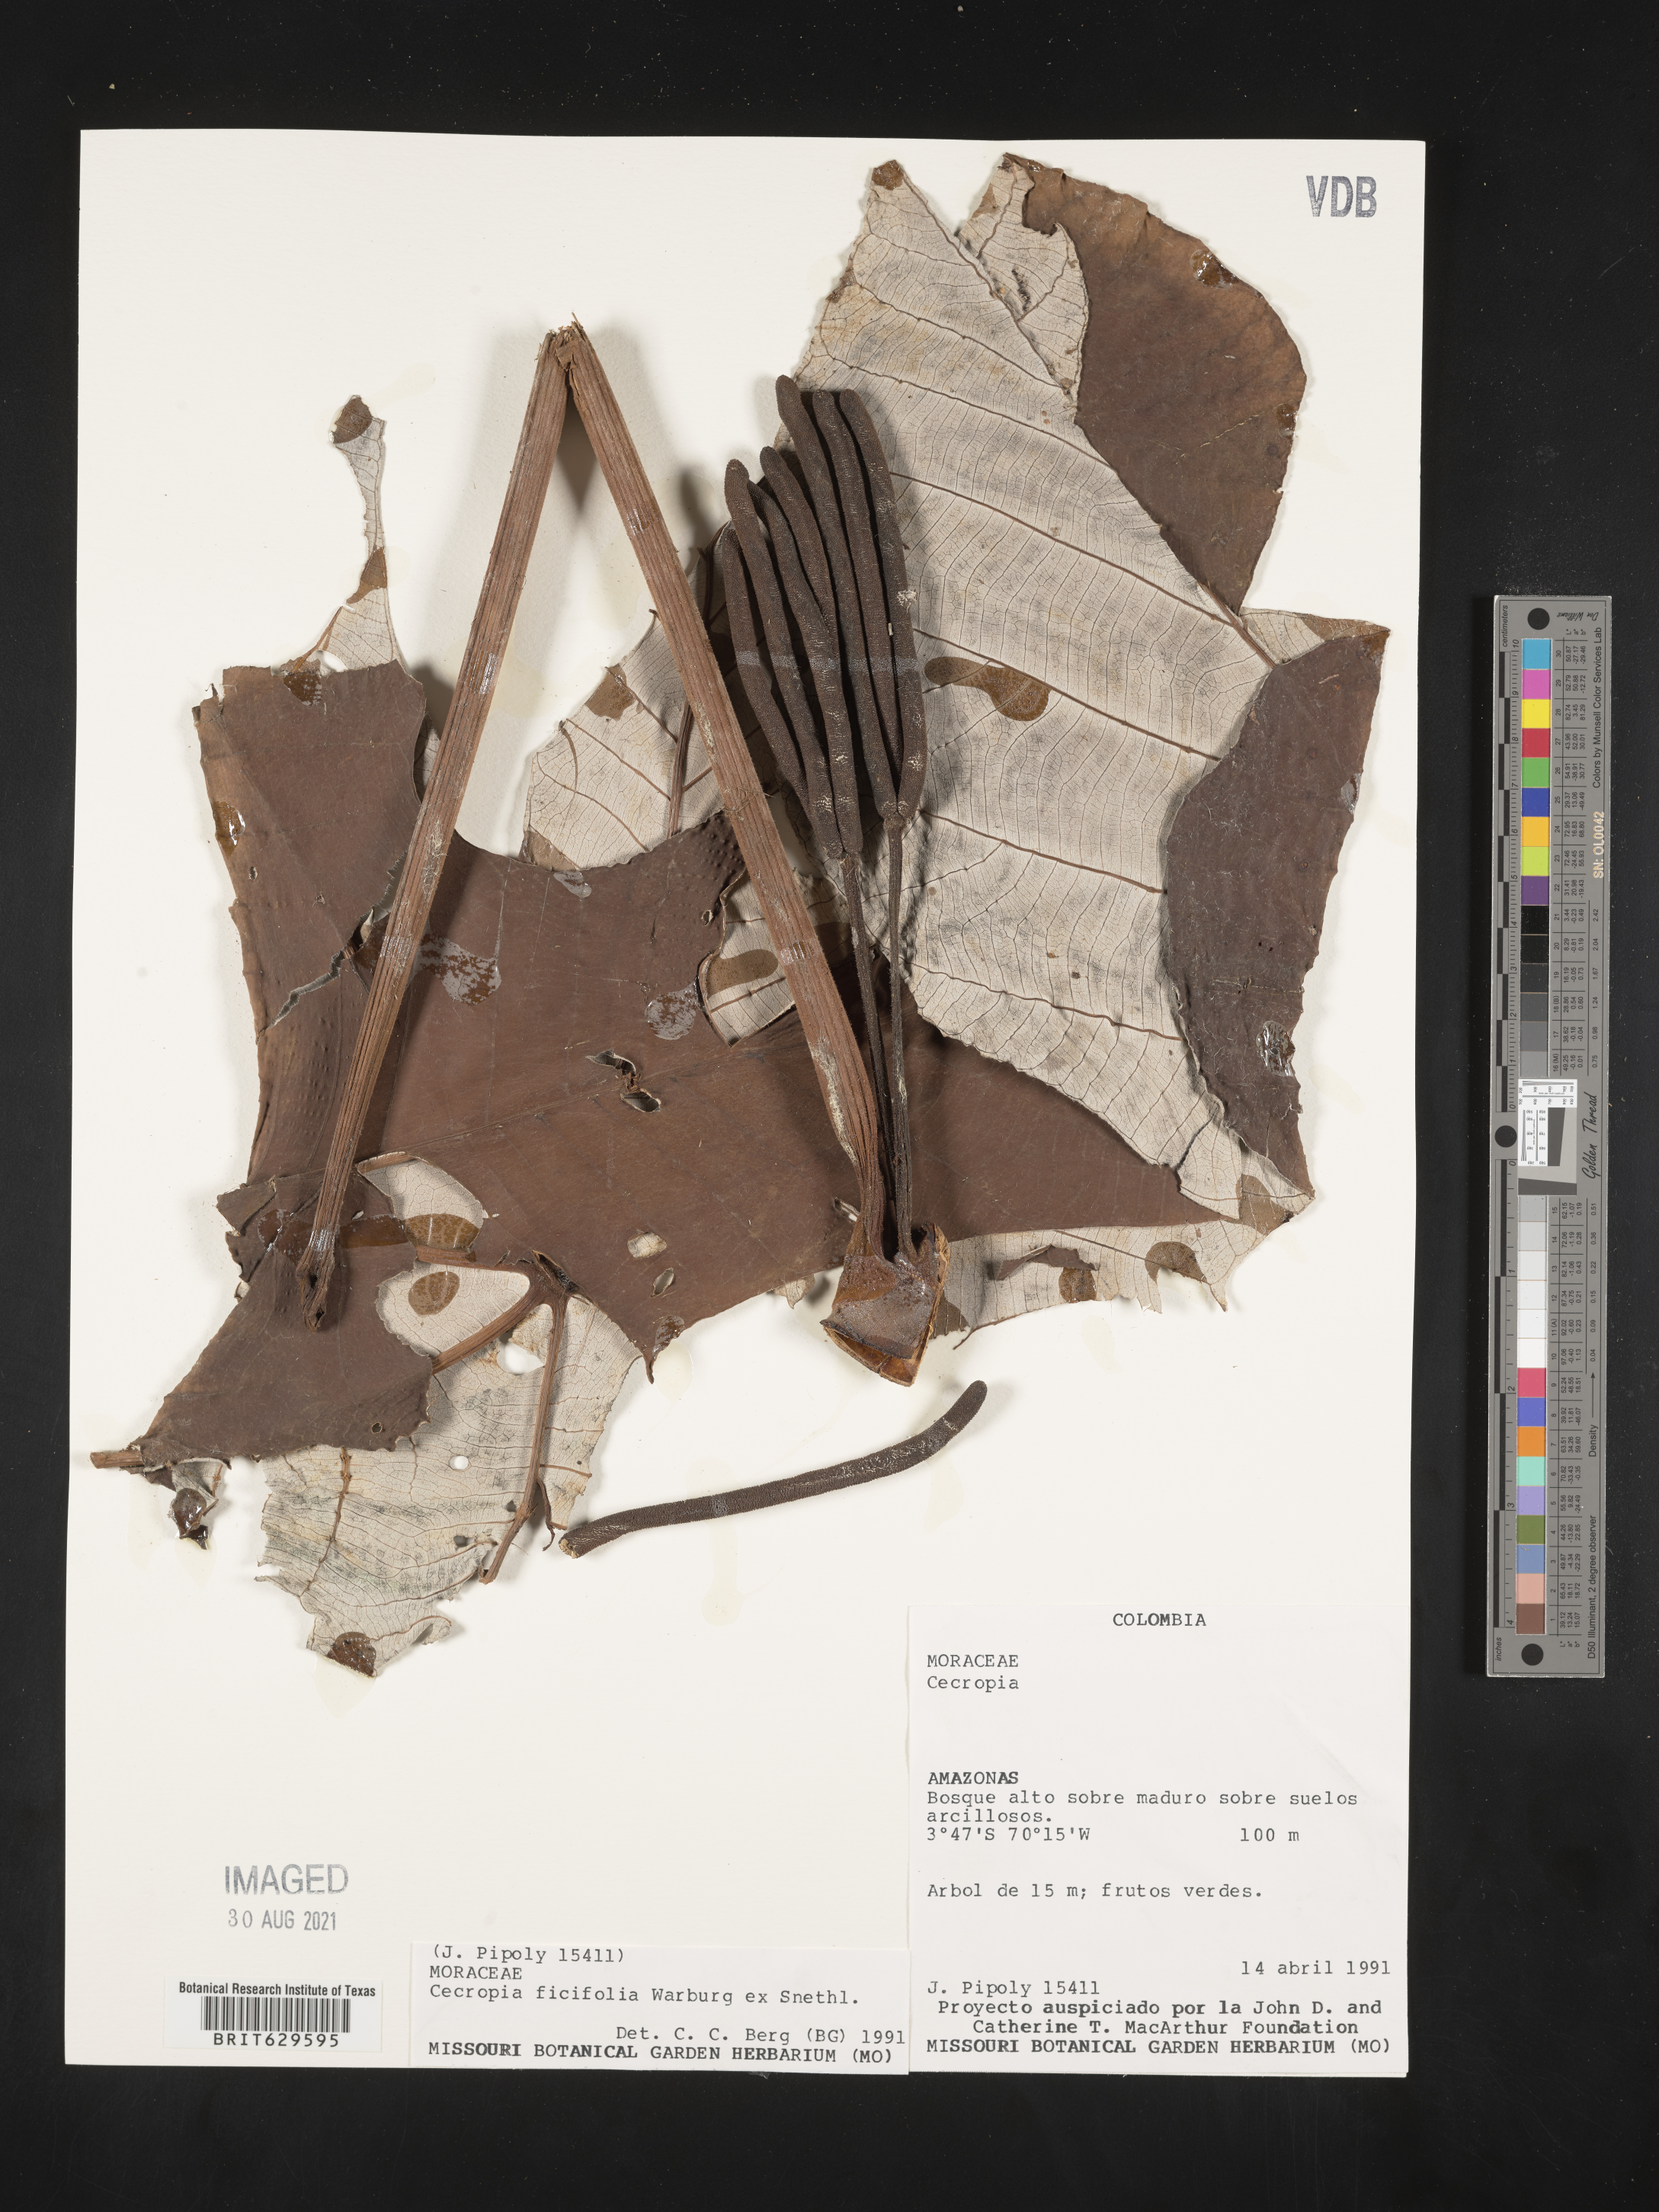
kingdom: Plantae
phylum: Tracheophyta
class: Magnoliopsida
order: Rosales
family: Urticaceae
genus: Cecropia
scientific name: Cecropia
